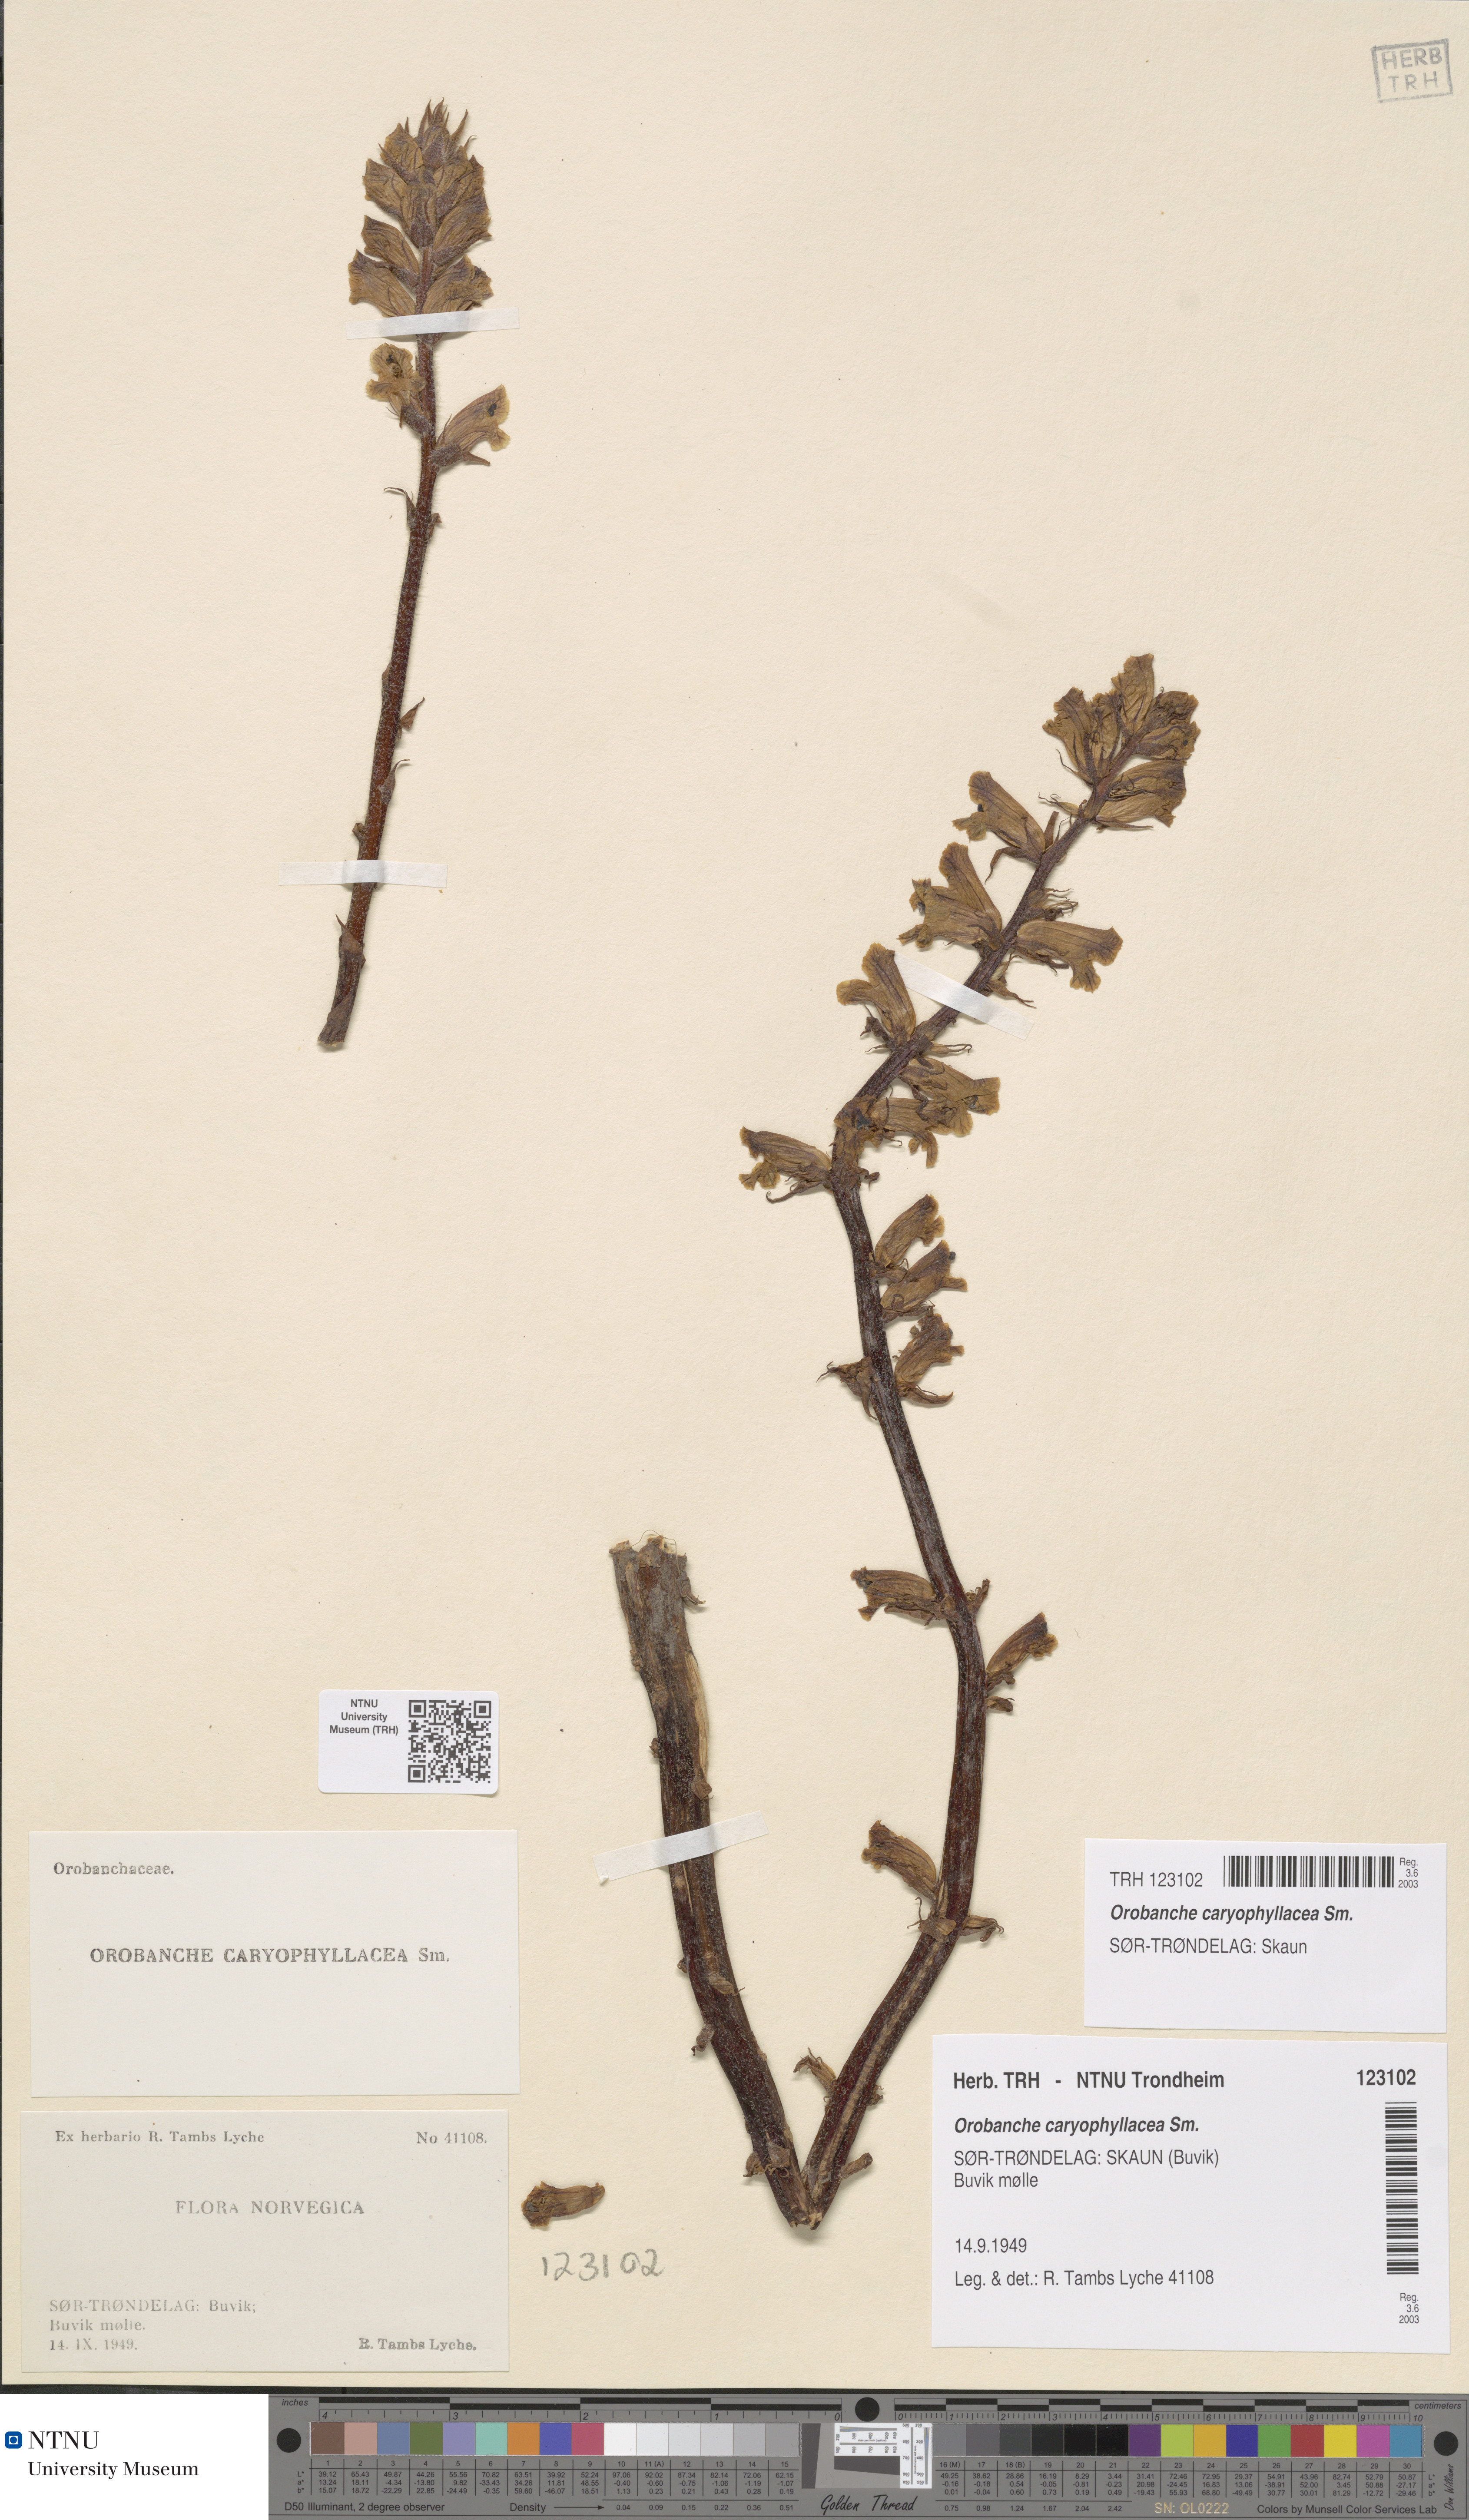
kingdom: Plantae
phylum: Tracheophyta
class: Magnoliopsida
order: Lamiales
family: Orobanchaceae
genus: Orobanche
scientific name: Orobanche caryophyllacea
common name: Bedstraw broomrape
